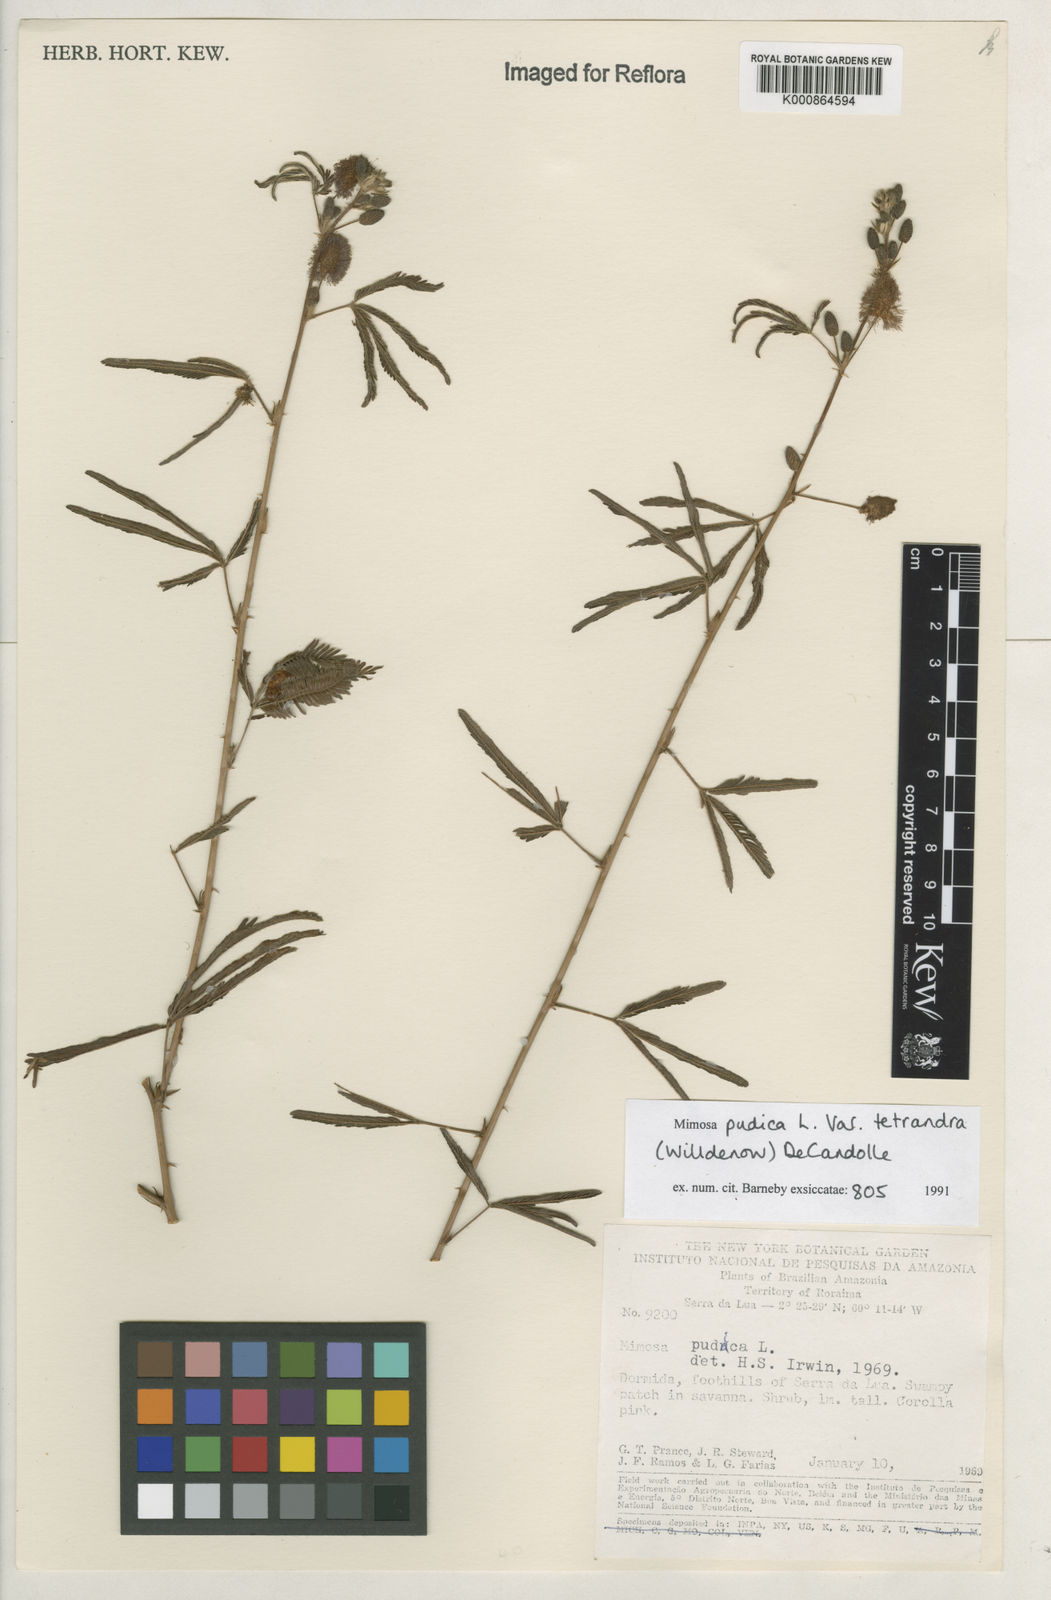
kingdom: Plantae
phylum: Tracheophyta
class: Magnoliopsida
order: Fabales
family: Fabaceae
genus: Mimosa
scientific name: Mimosa pudica
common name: Sensitive plant
